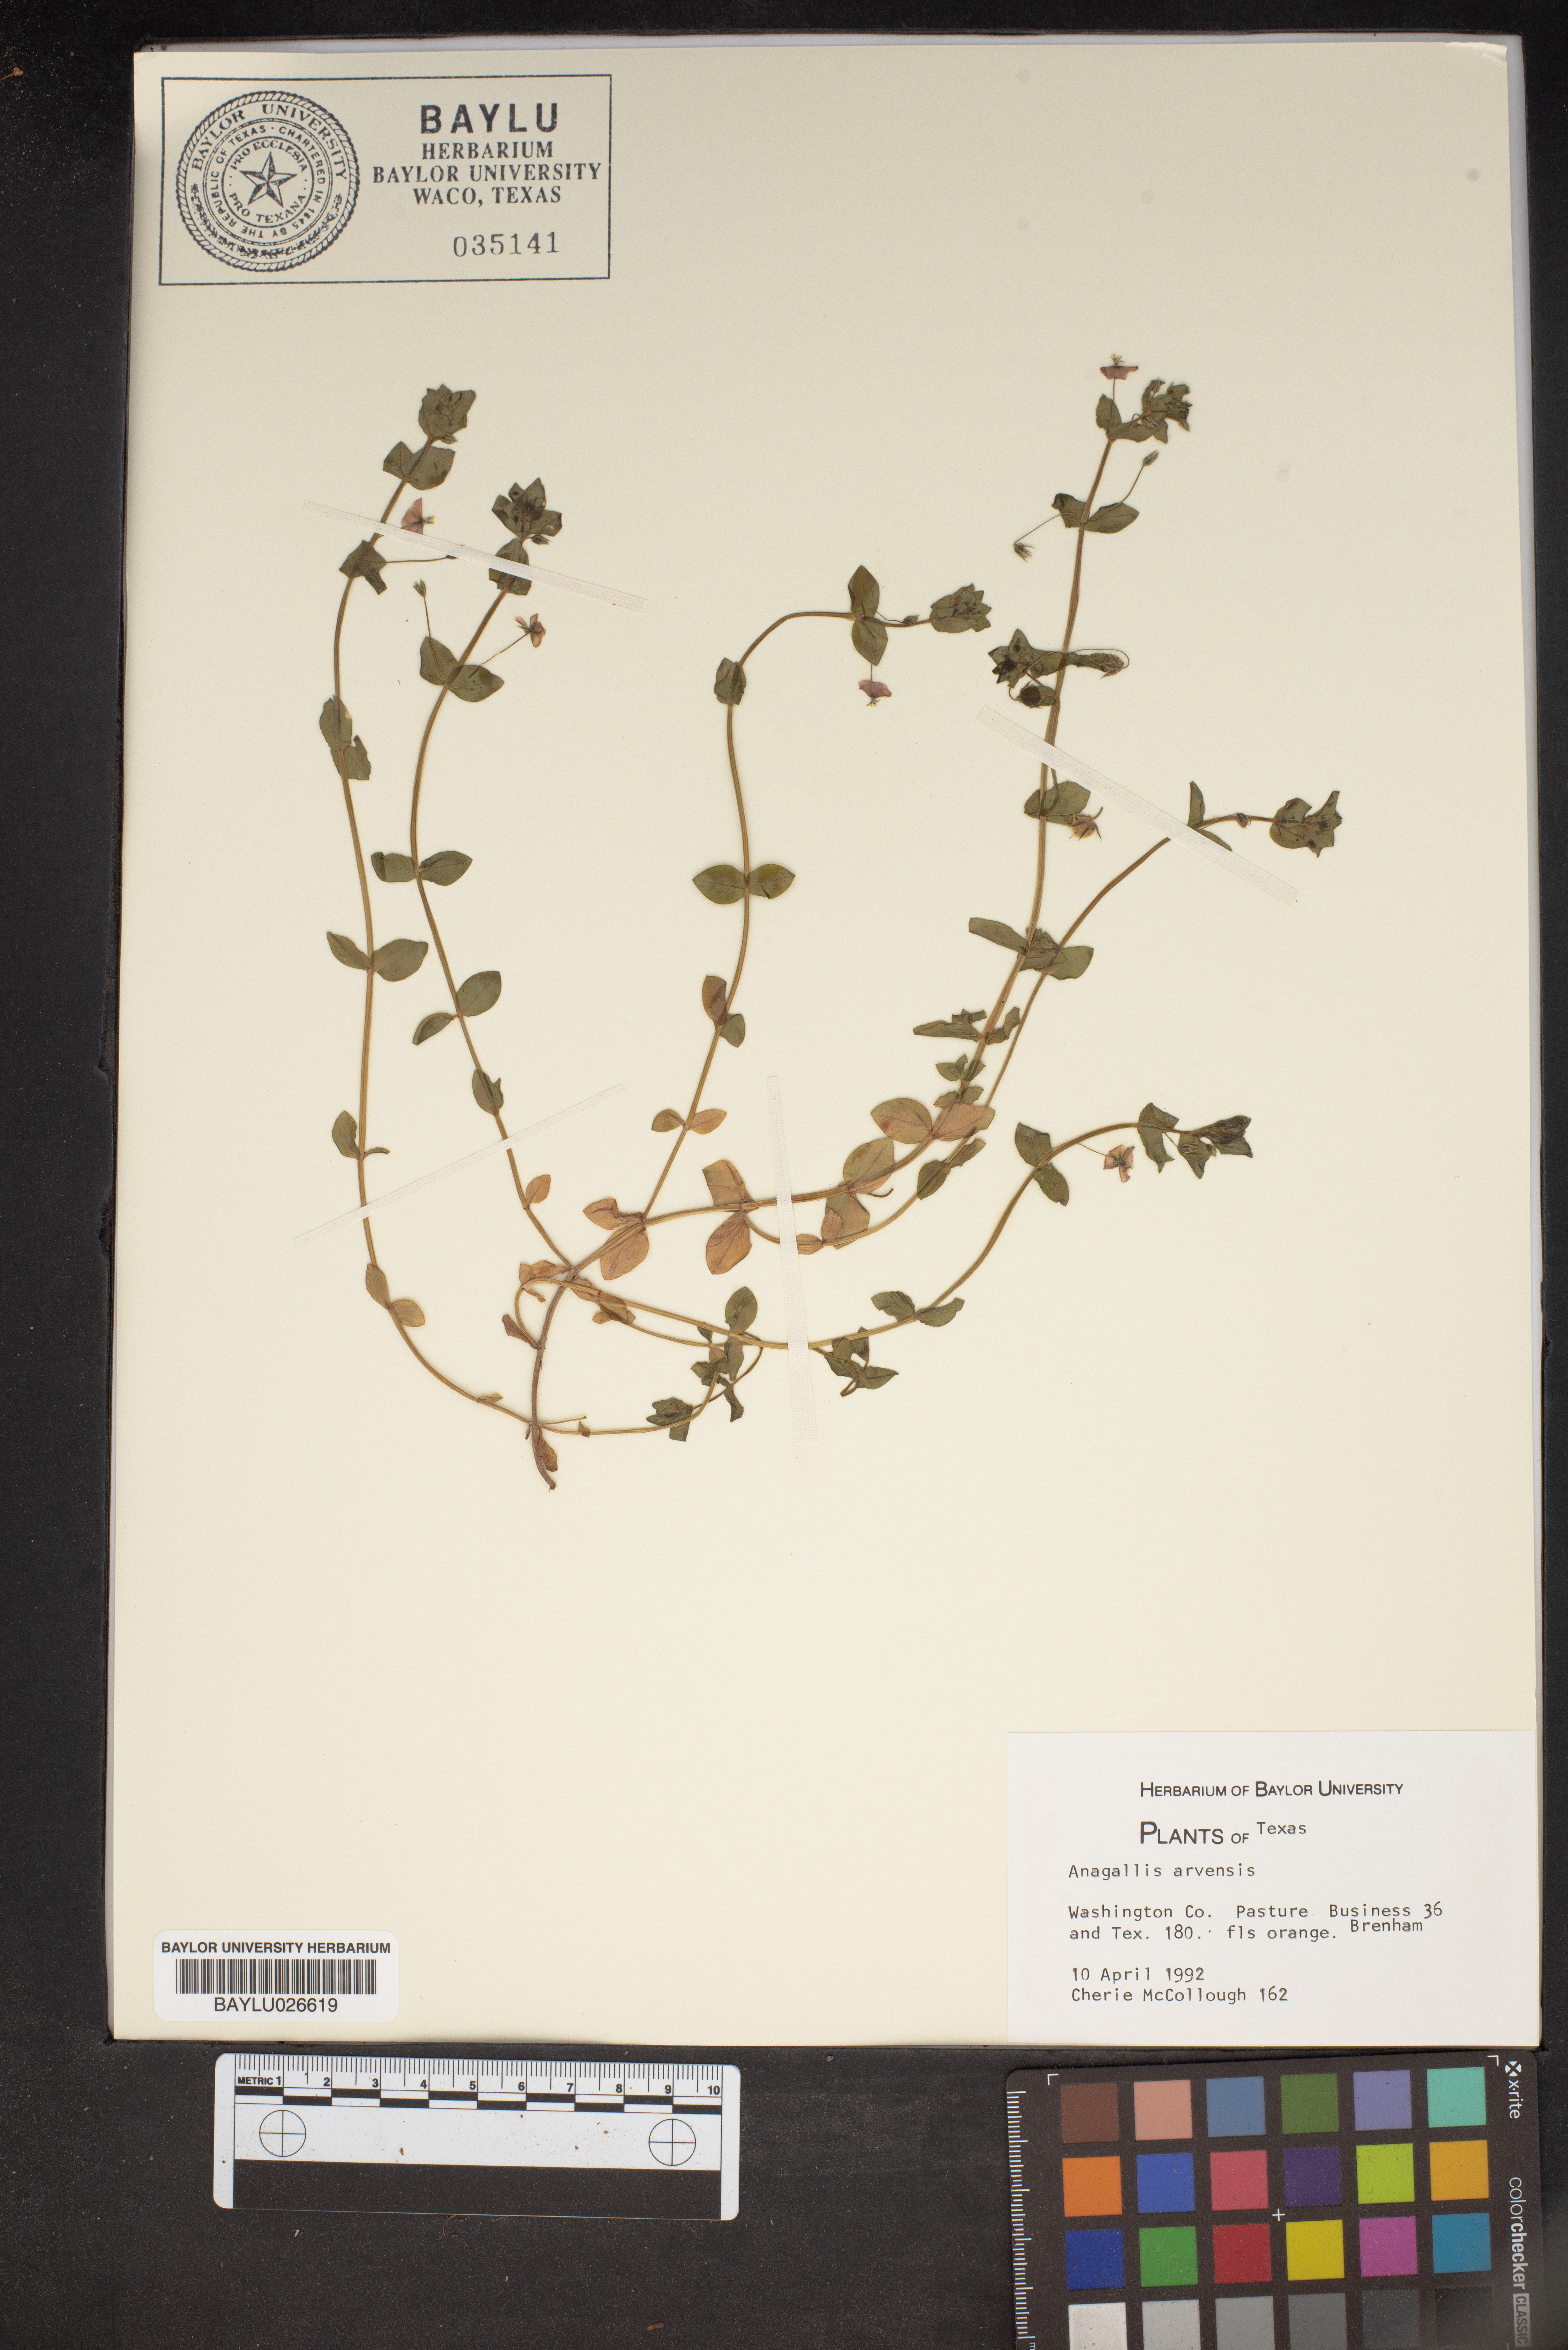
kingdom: Plantae
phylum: Tracheophyta
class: Magnoliopsida
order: Ericales
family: Primulaceae
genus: Lysimachia
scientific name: Lysimachia arvensis
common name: Scarlet pimpernel
